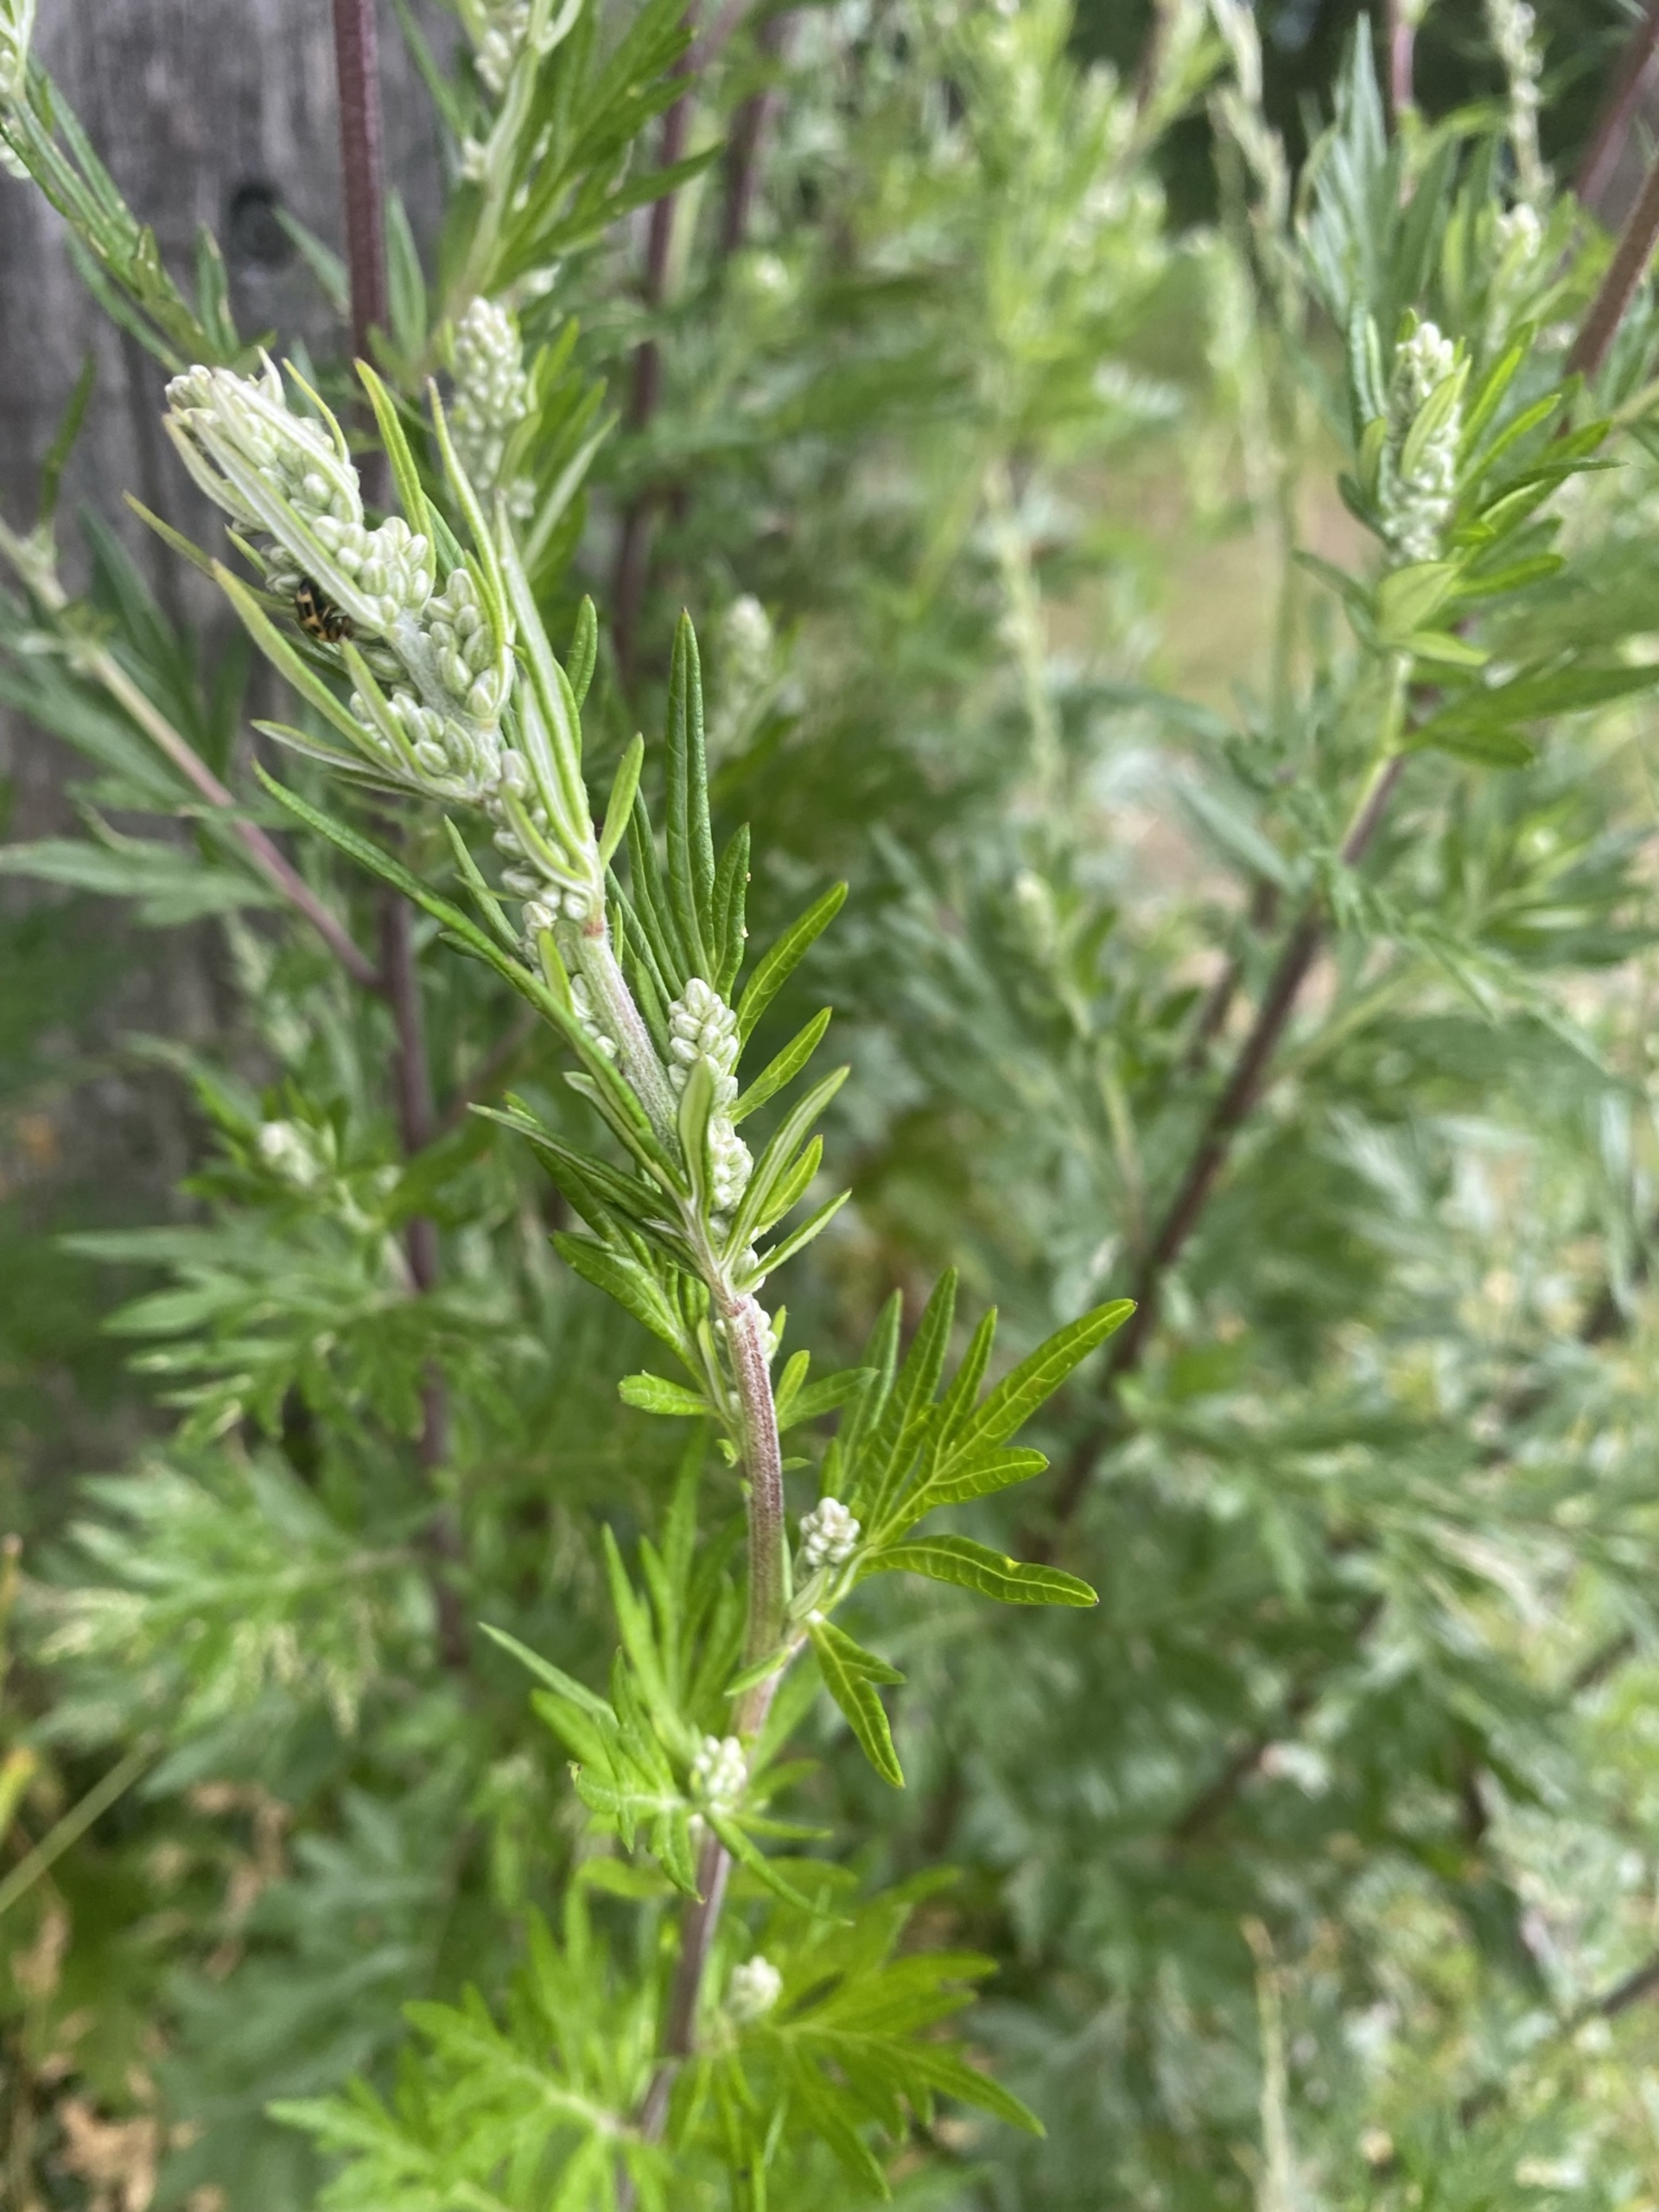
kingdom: Plantae
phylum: Tracheophyta
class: Magnoliopsida
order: Asterales
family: Asteraceae
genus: Artemisia
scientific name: Artemisia vulgaris
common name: Grå-bynke
